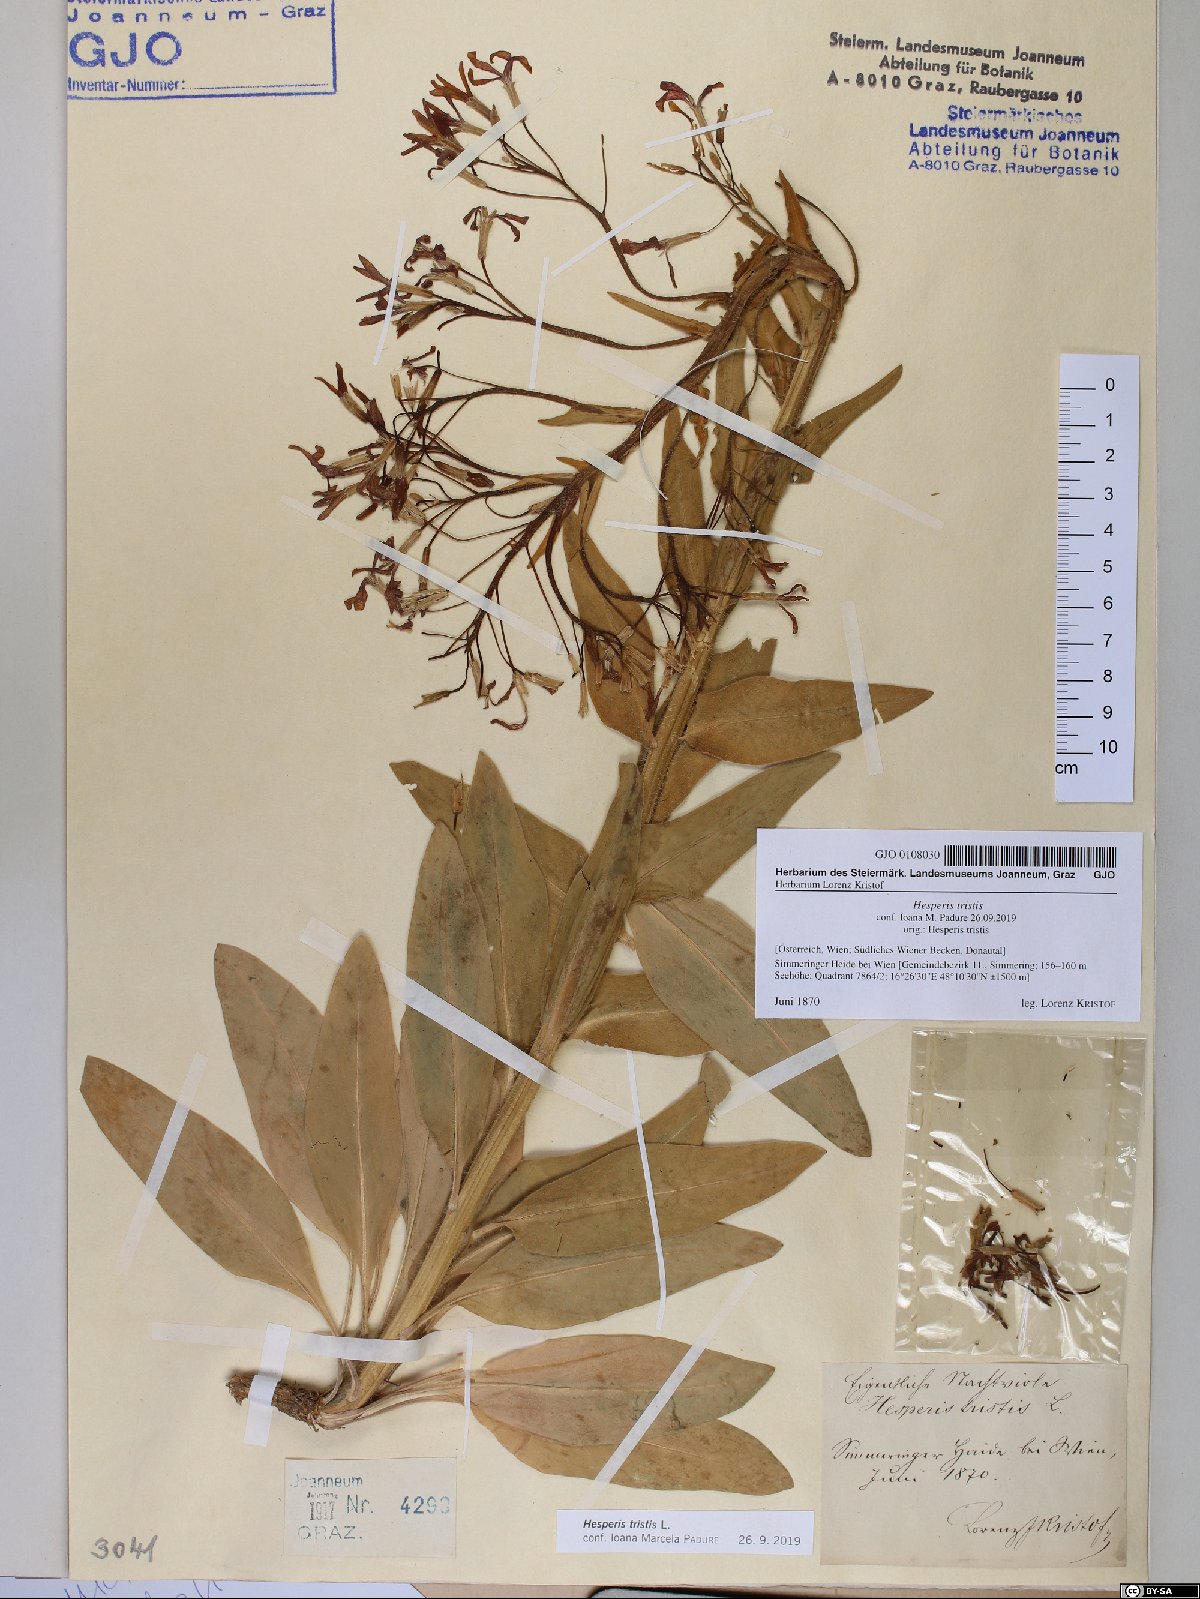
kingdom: Plantae
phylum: Tracheophyta
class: Magnoliopsida
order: Brassicales
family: Brassicaceae
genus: Hesperis
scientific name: Hesperis tristis
